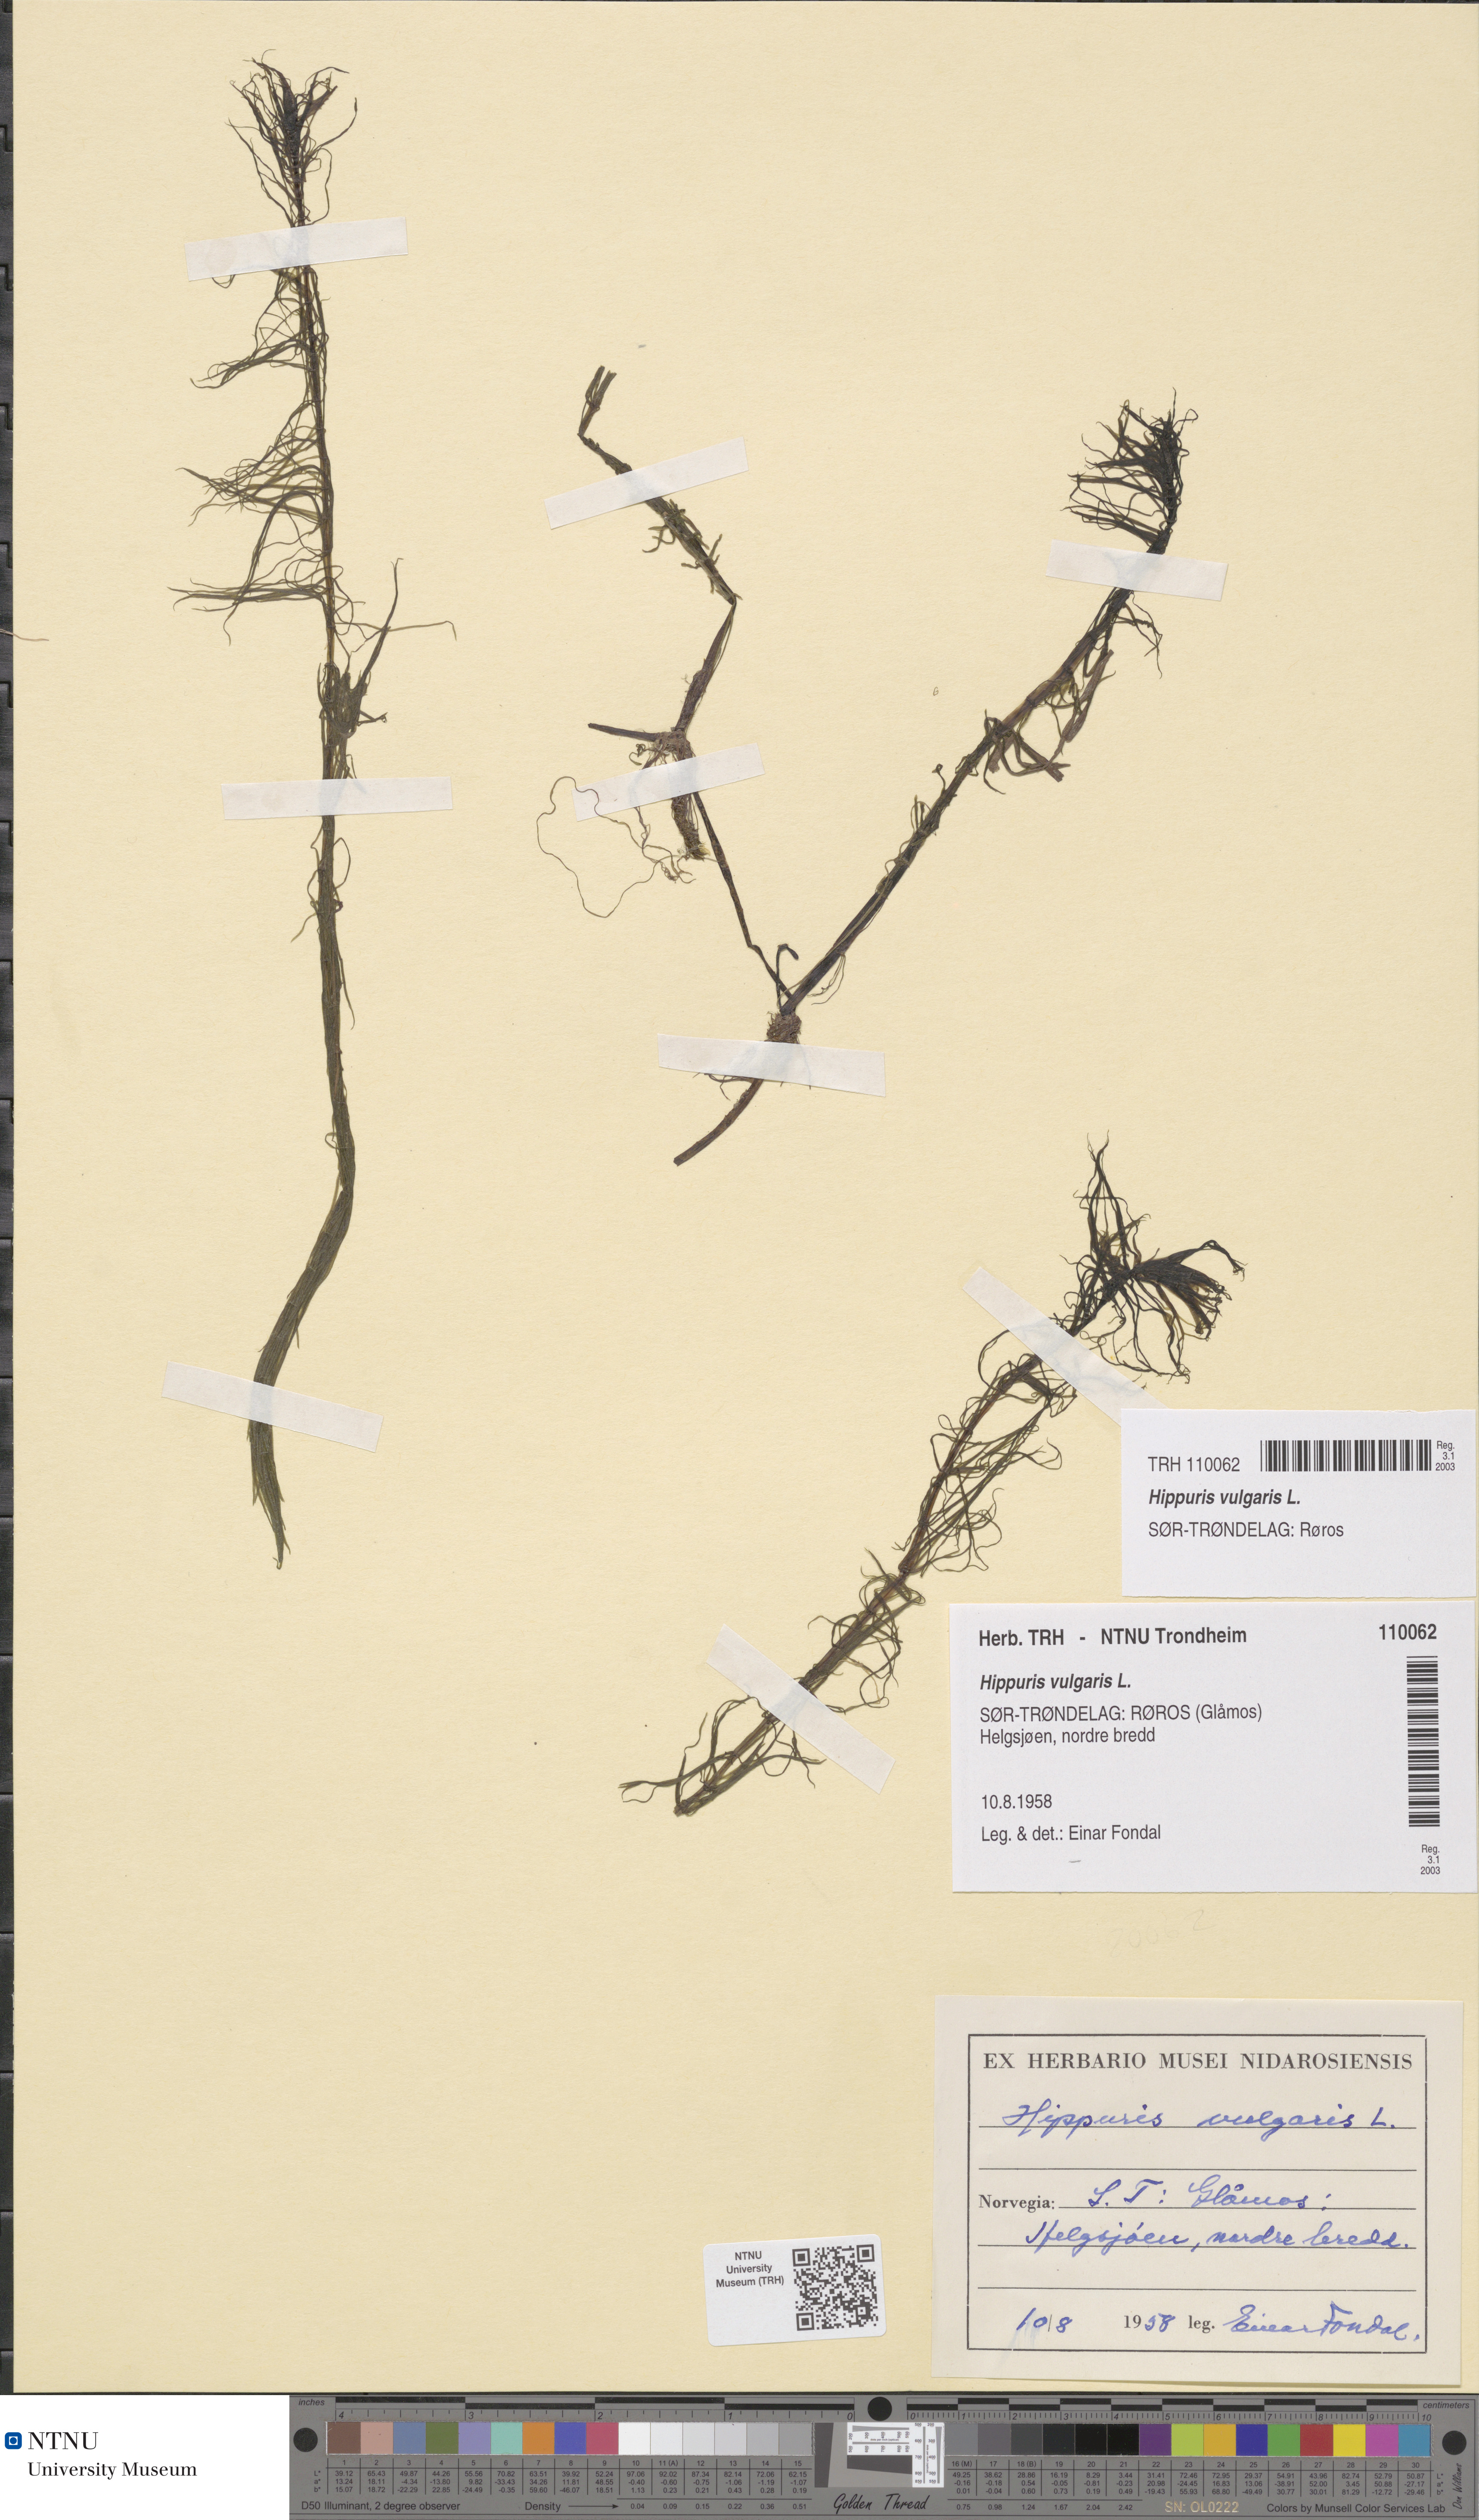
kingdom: Plantae
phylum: Tracheophyta
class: Magnoliopsida
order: Lamiales
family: Plantaginaceae
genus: Hippuris
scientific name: Hippuris vulgaris
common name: Mare's-tail
